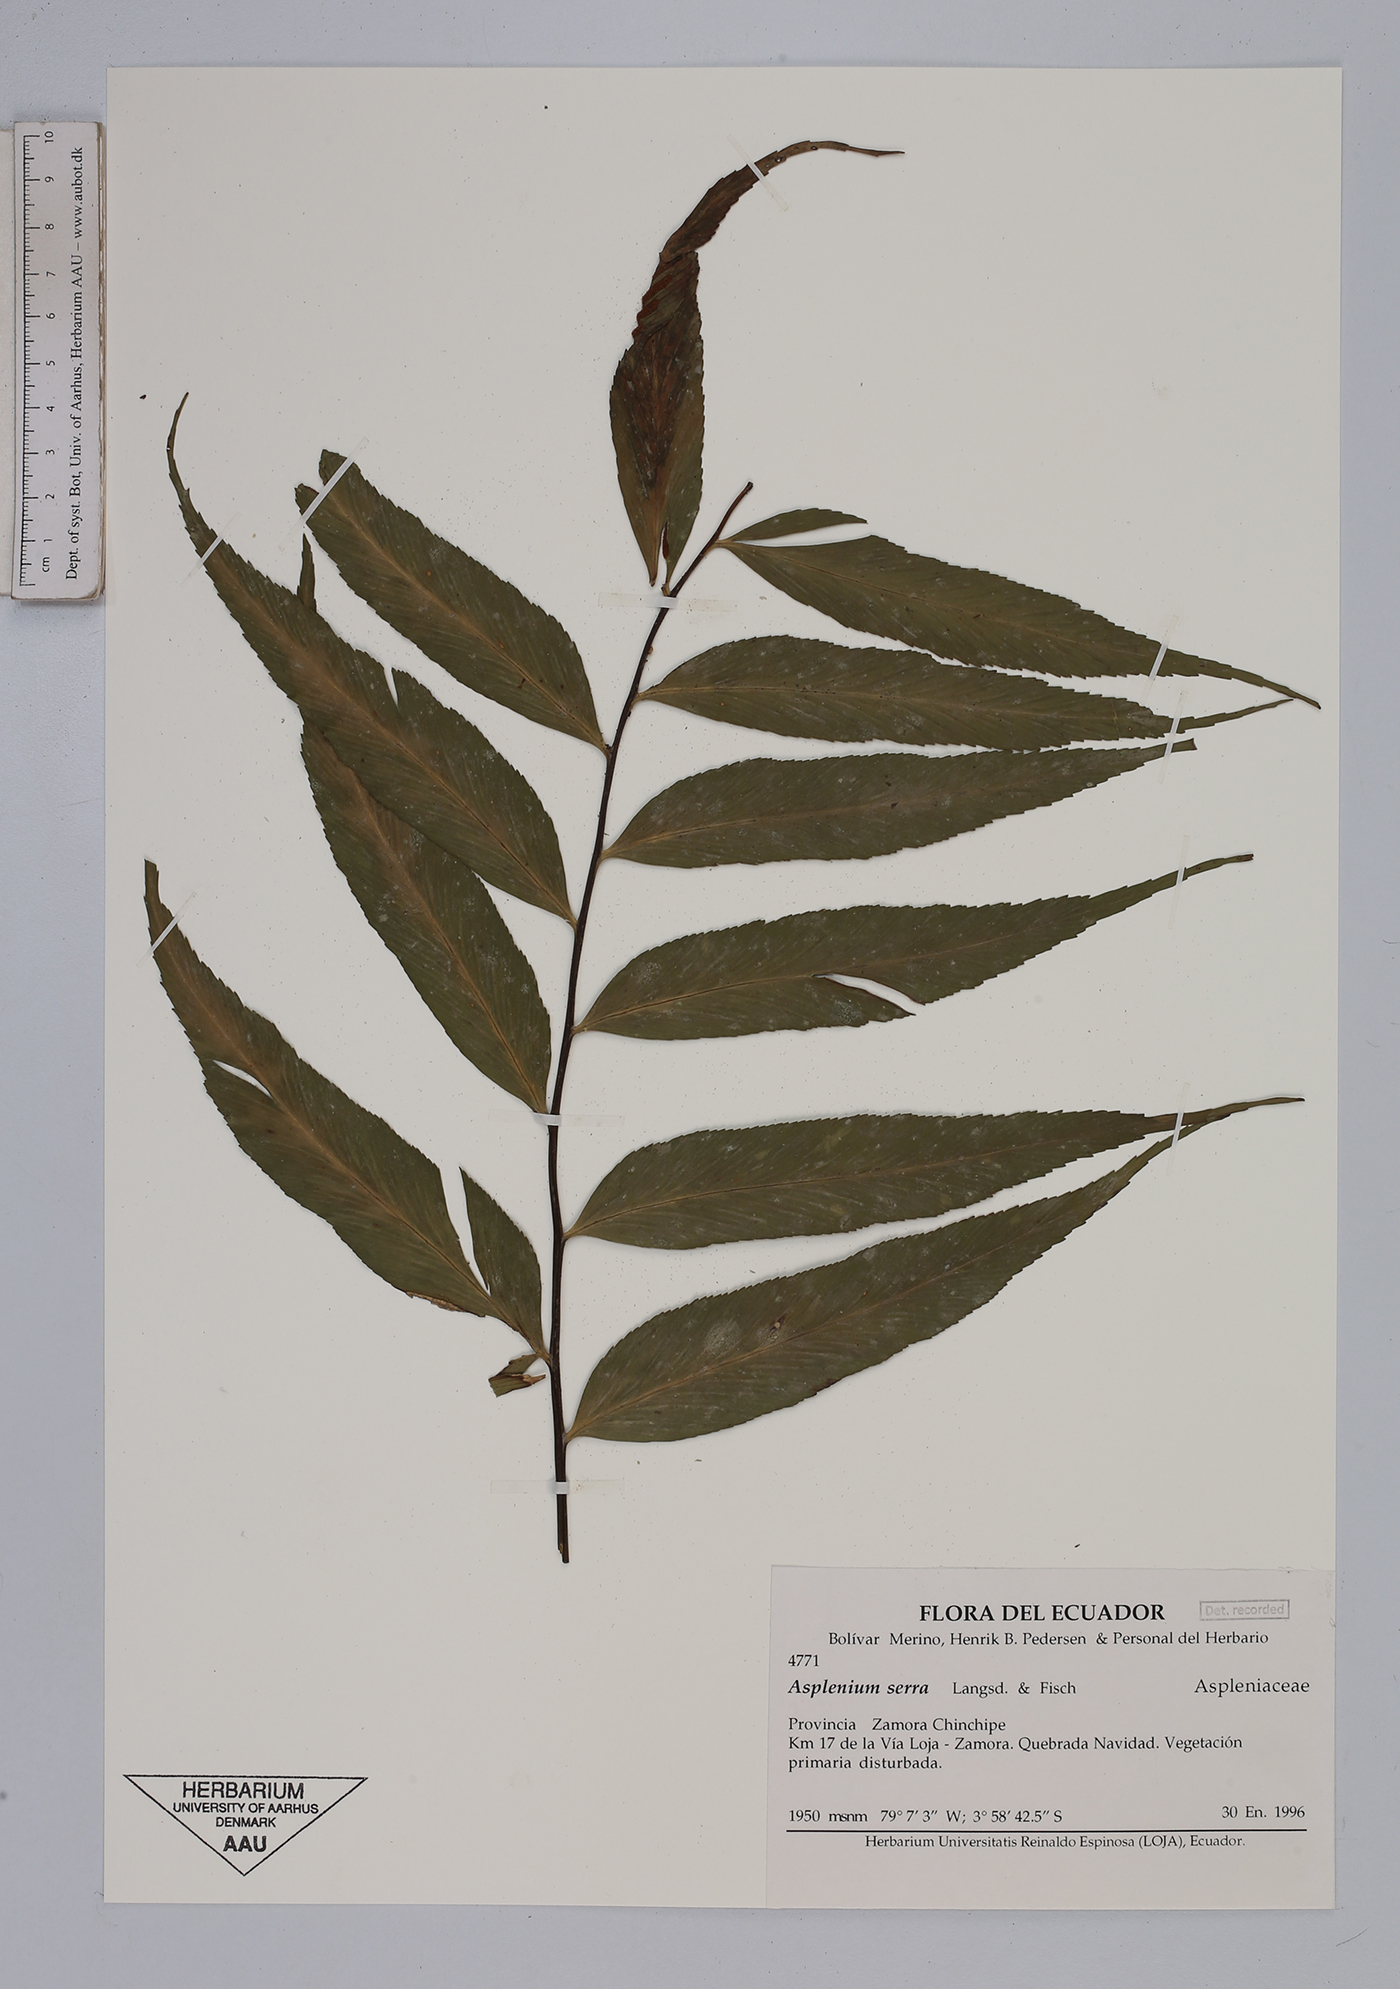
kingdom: Plantae
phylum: Tracheophyta
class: Polypodiopsida
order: Polypodiales
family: Aspleniaceae
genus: Asplenium
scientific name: Asplenium serra
